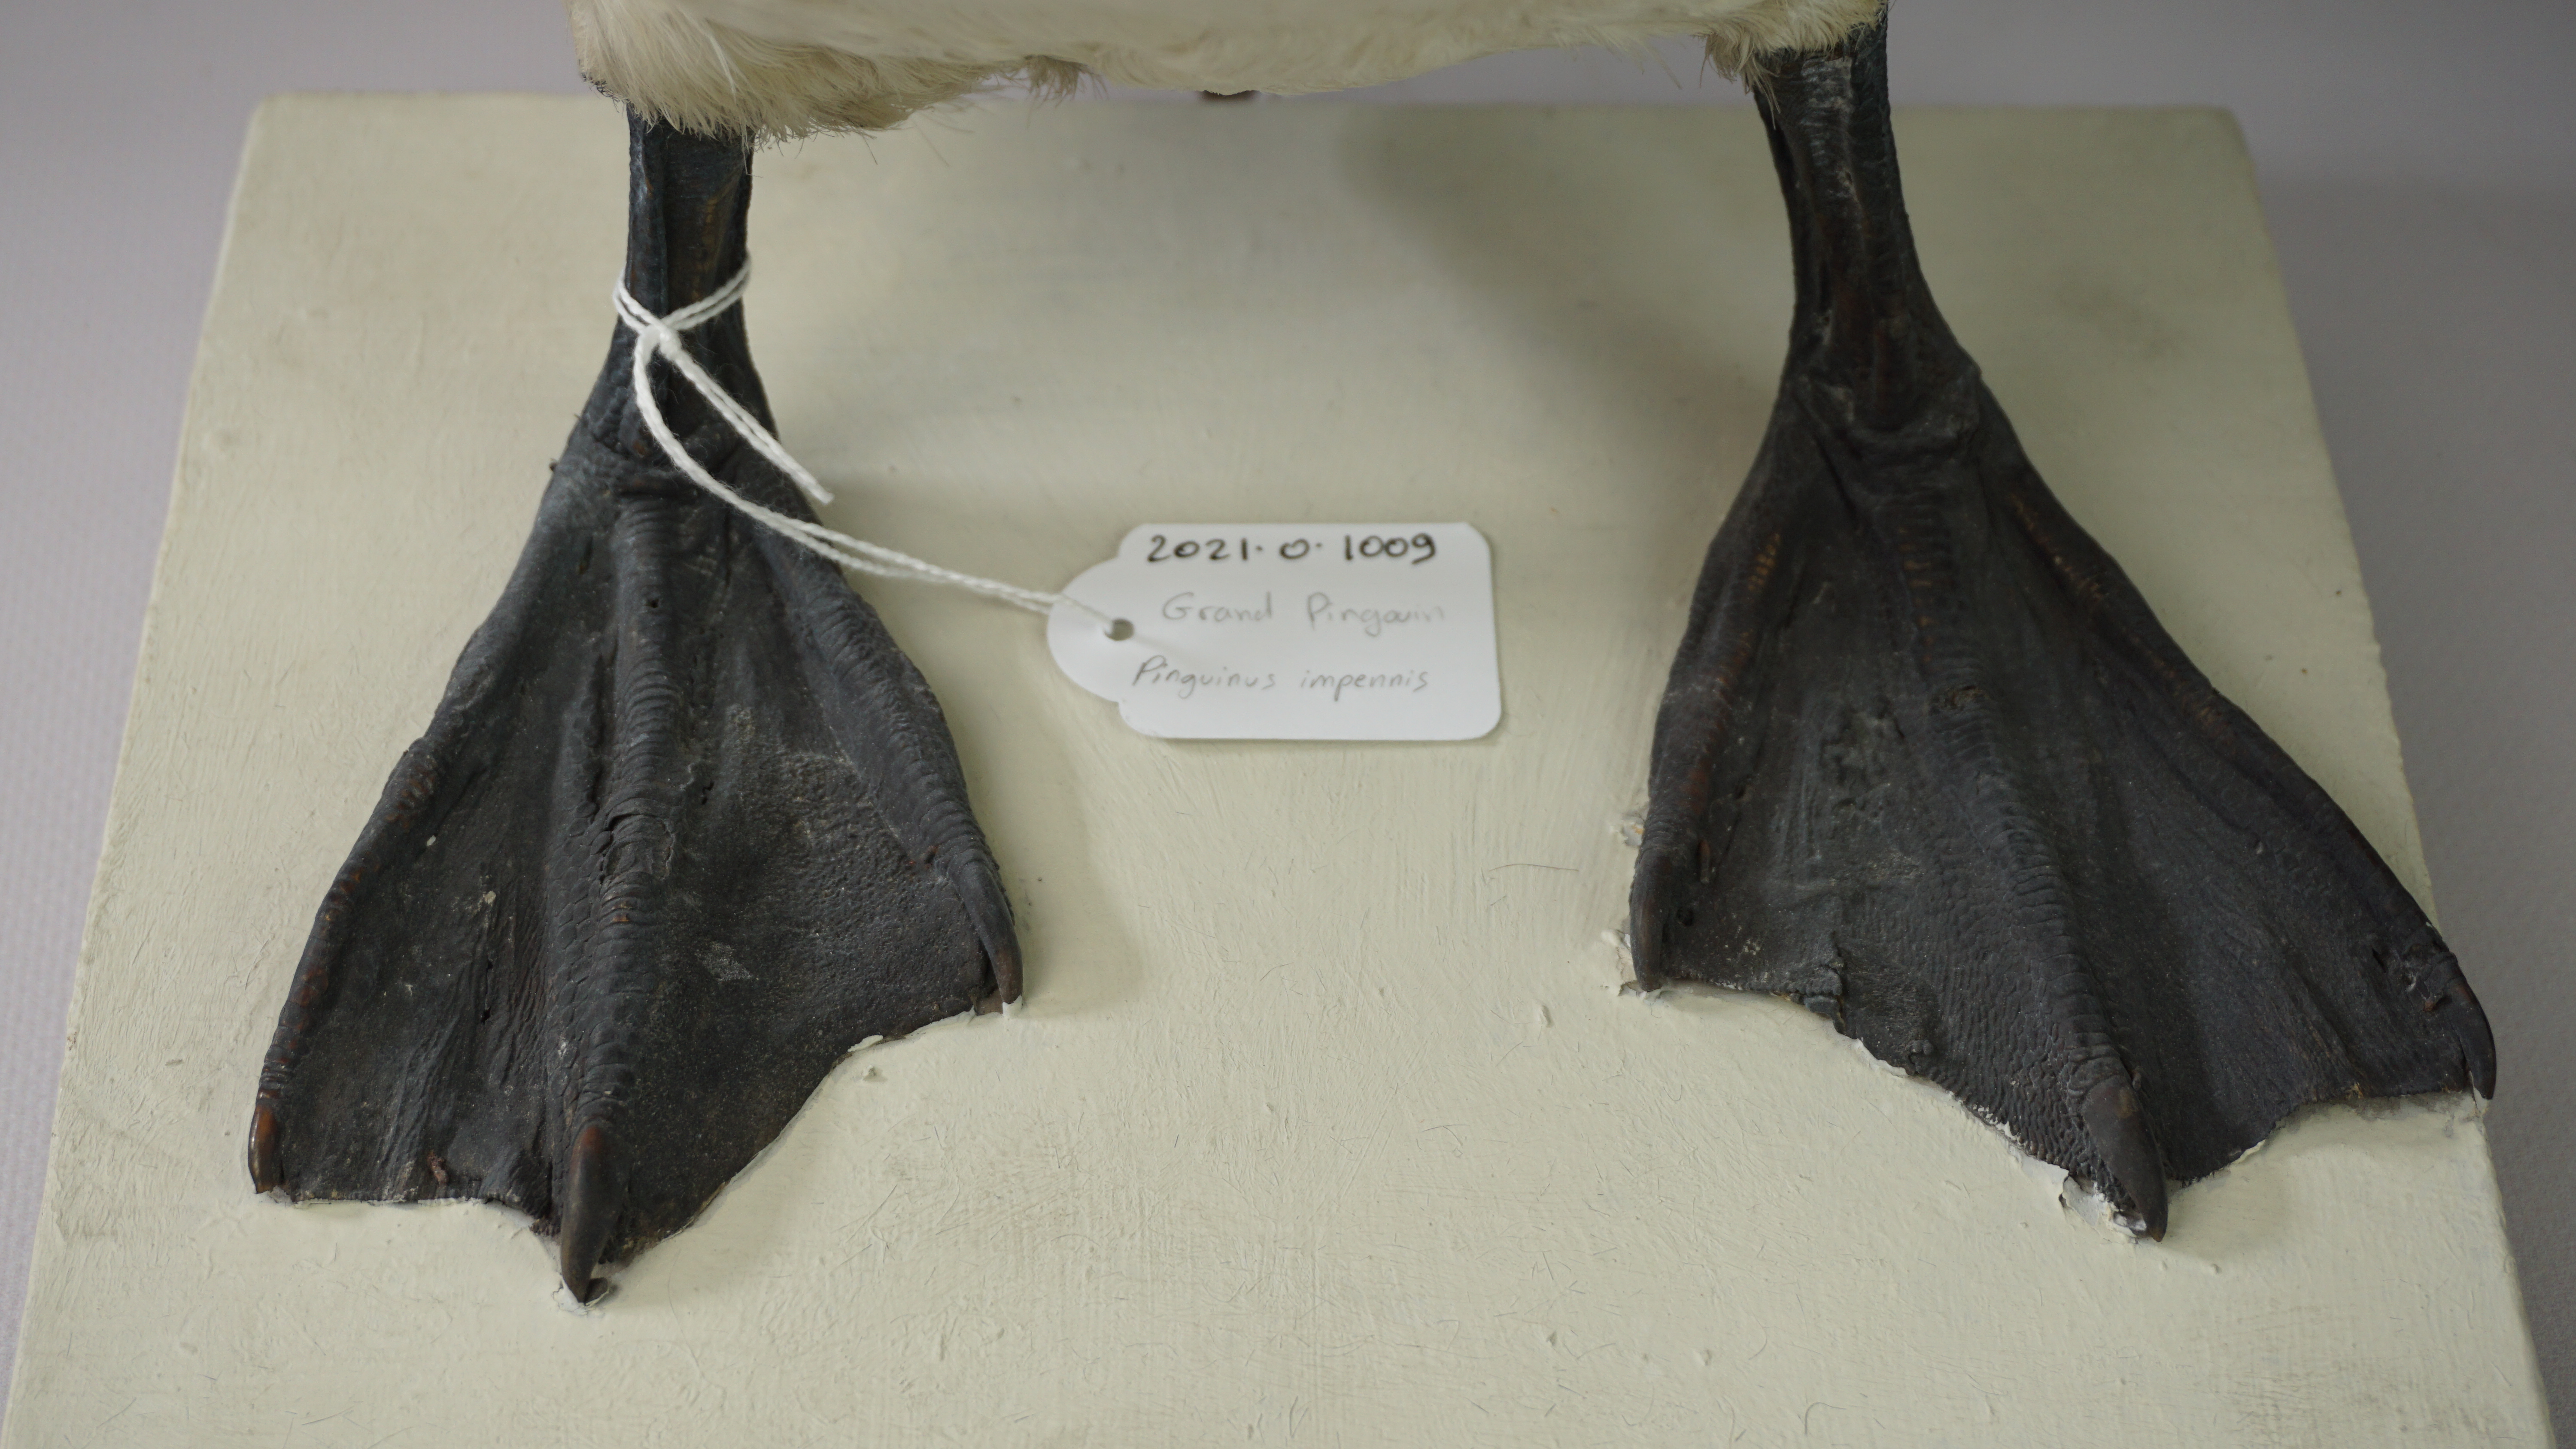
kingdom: Animalia
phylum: Chordata
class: Aves
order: Charadriiformes
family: Alcidae
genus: Pinguinus
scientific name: Pinguinus impennis
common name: Great auk
